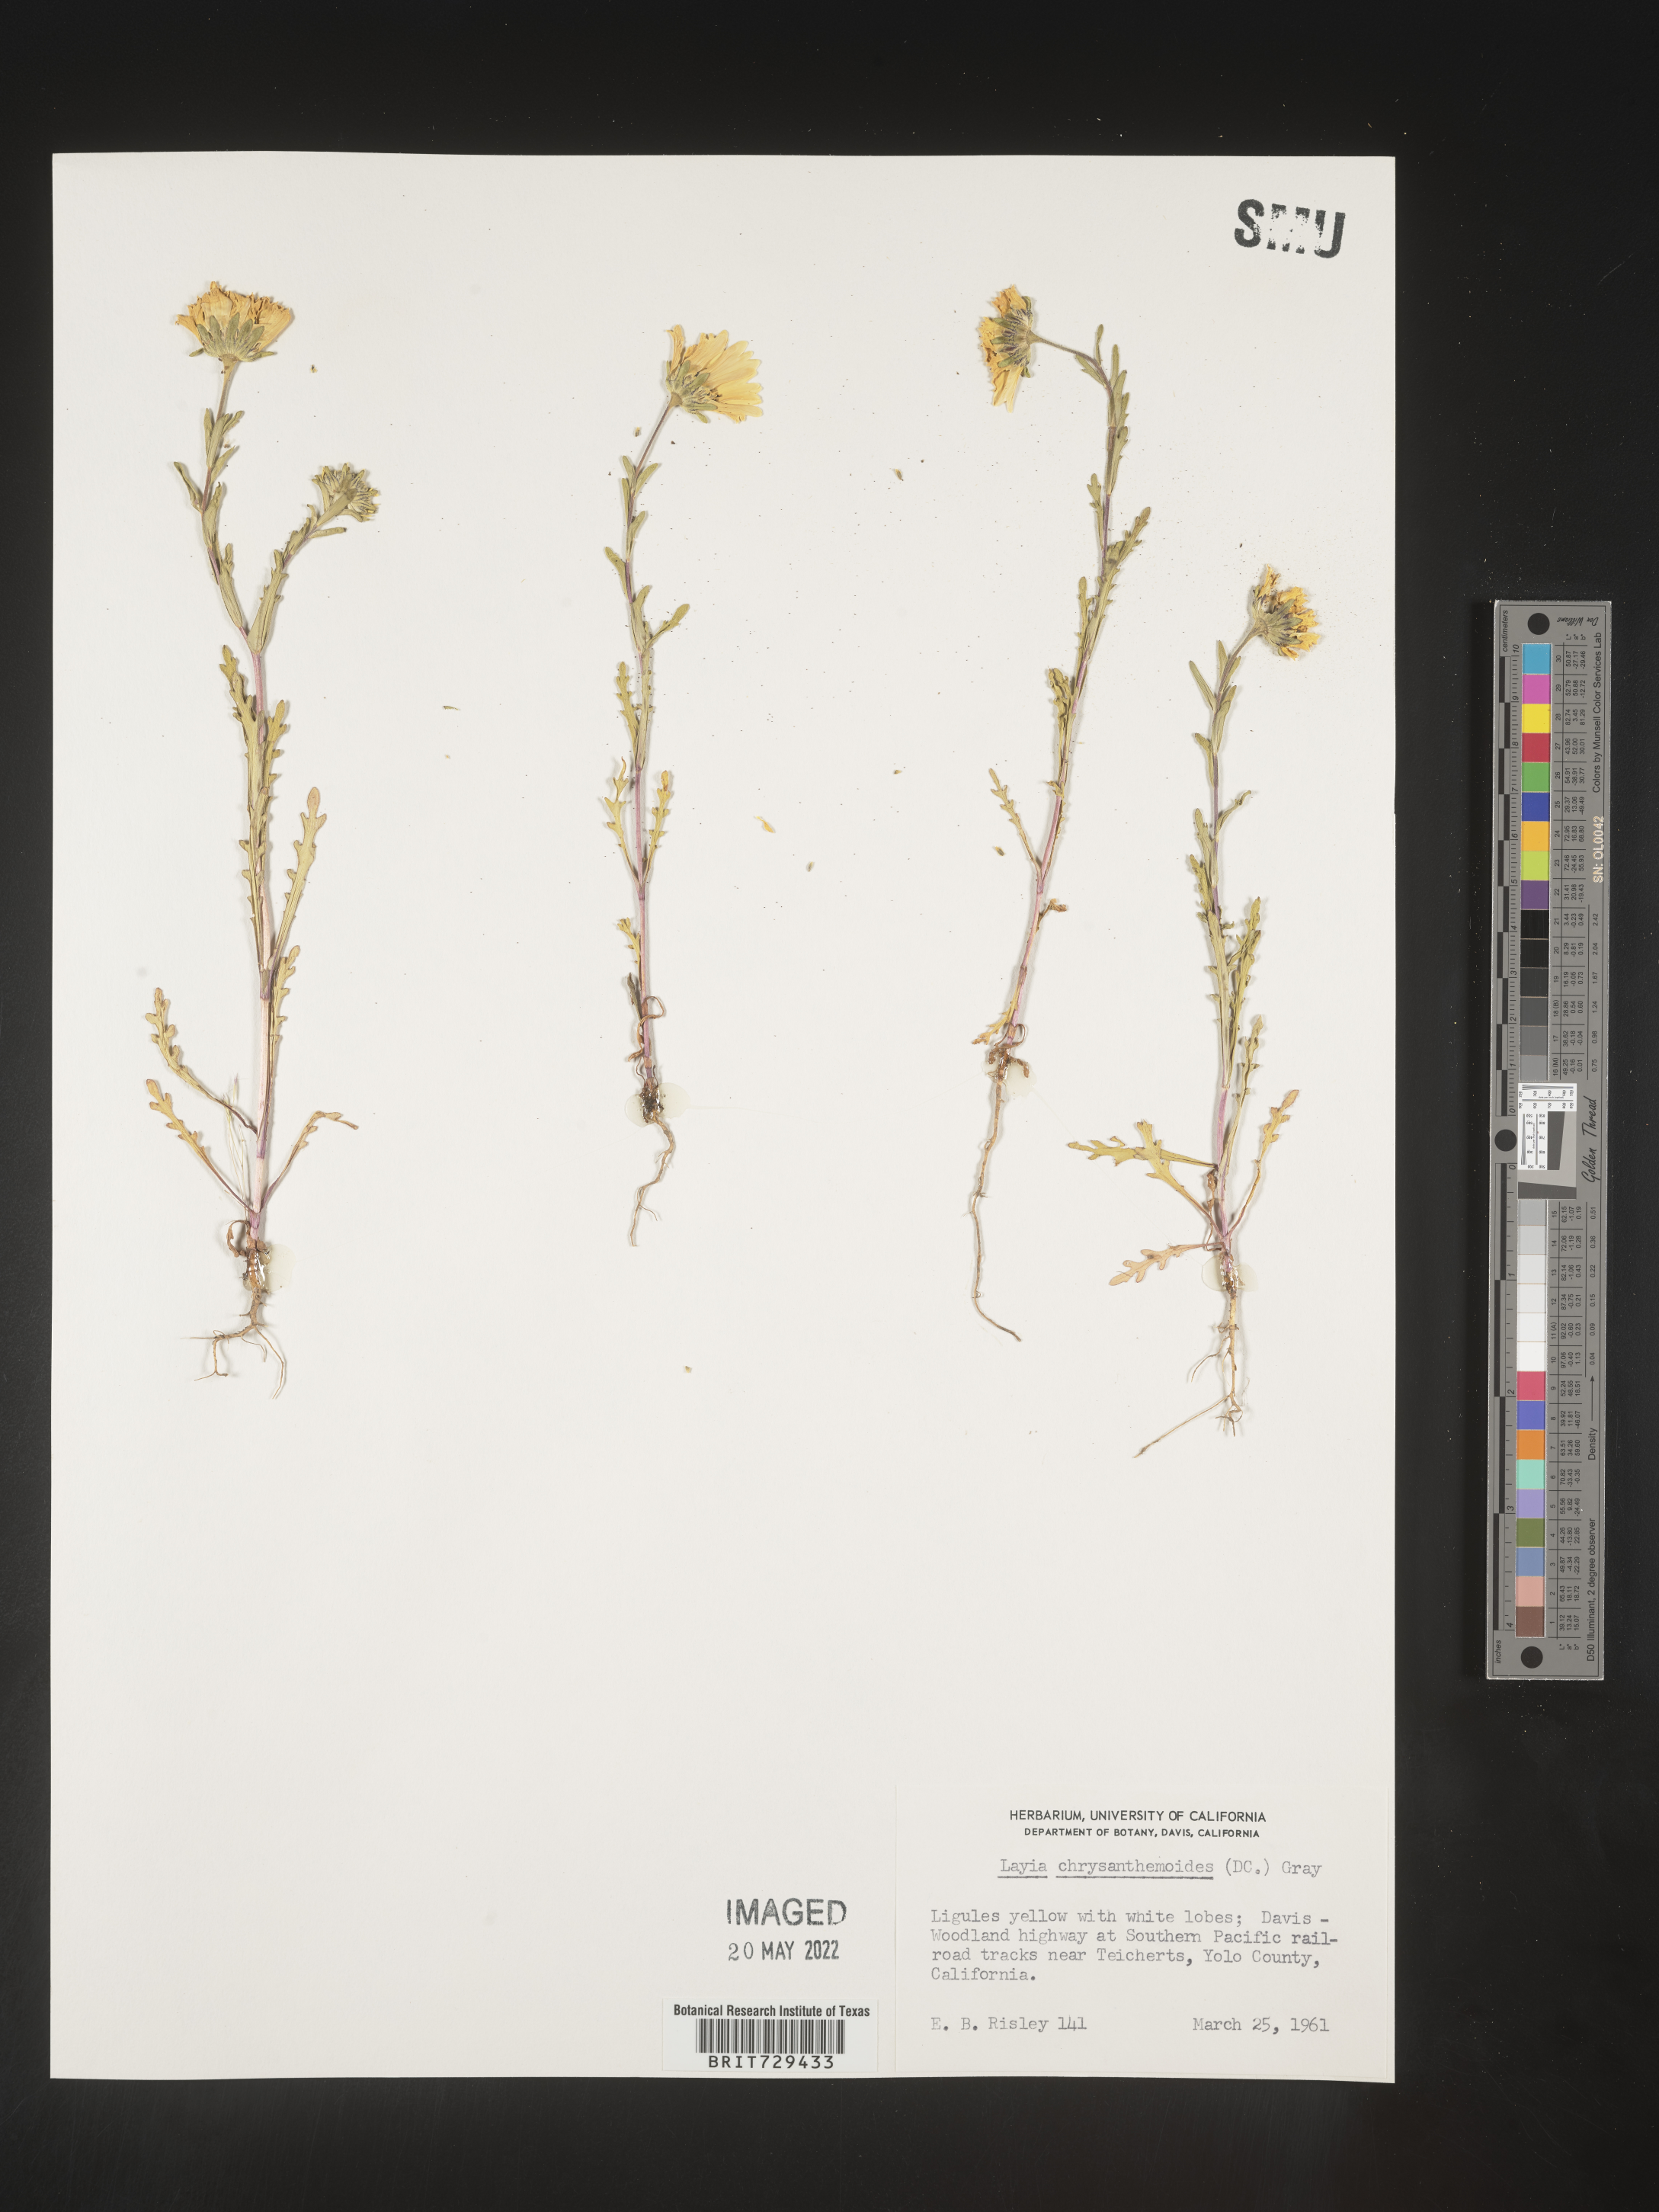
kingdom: Plantae
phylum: Tracheophyta
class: Magnoliopsida
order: Asterales
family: Asteraceae
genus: Layia
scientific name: Layia
